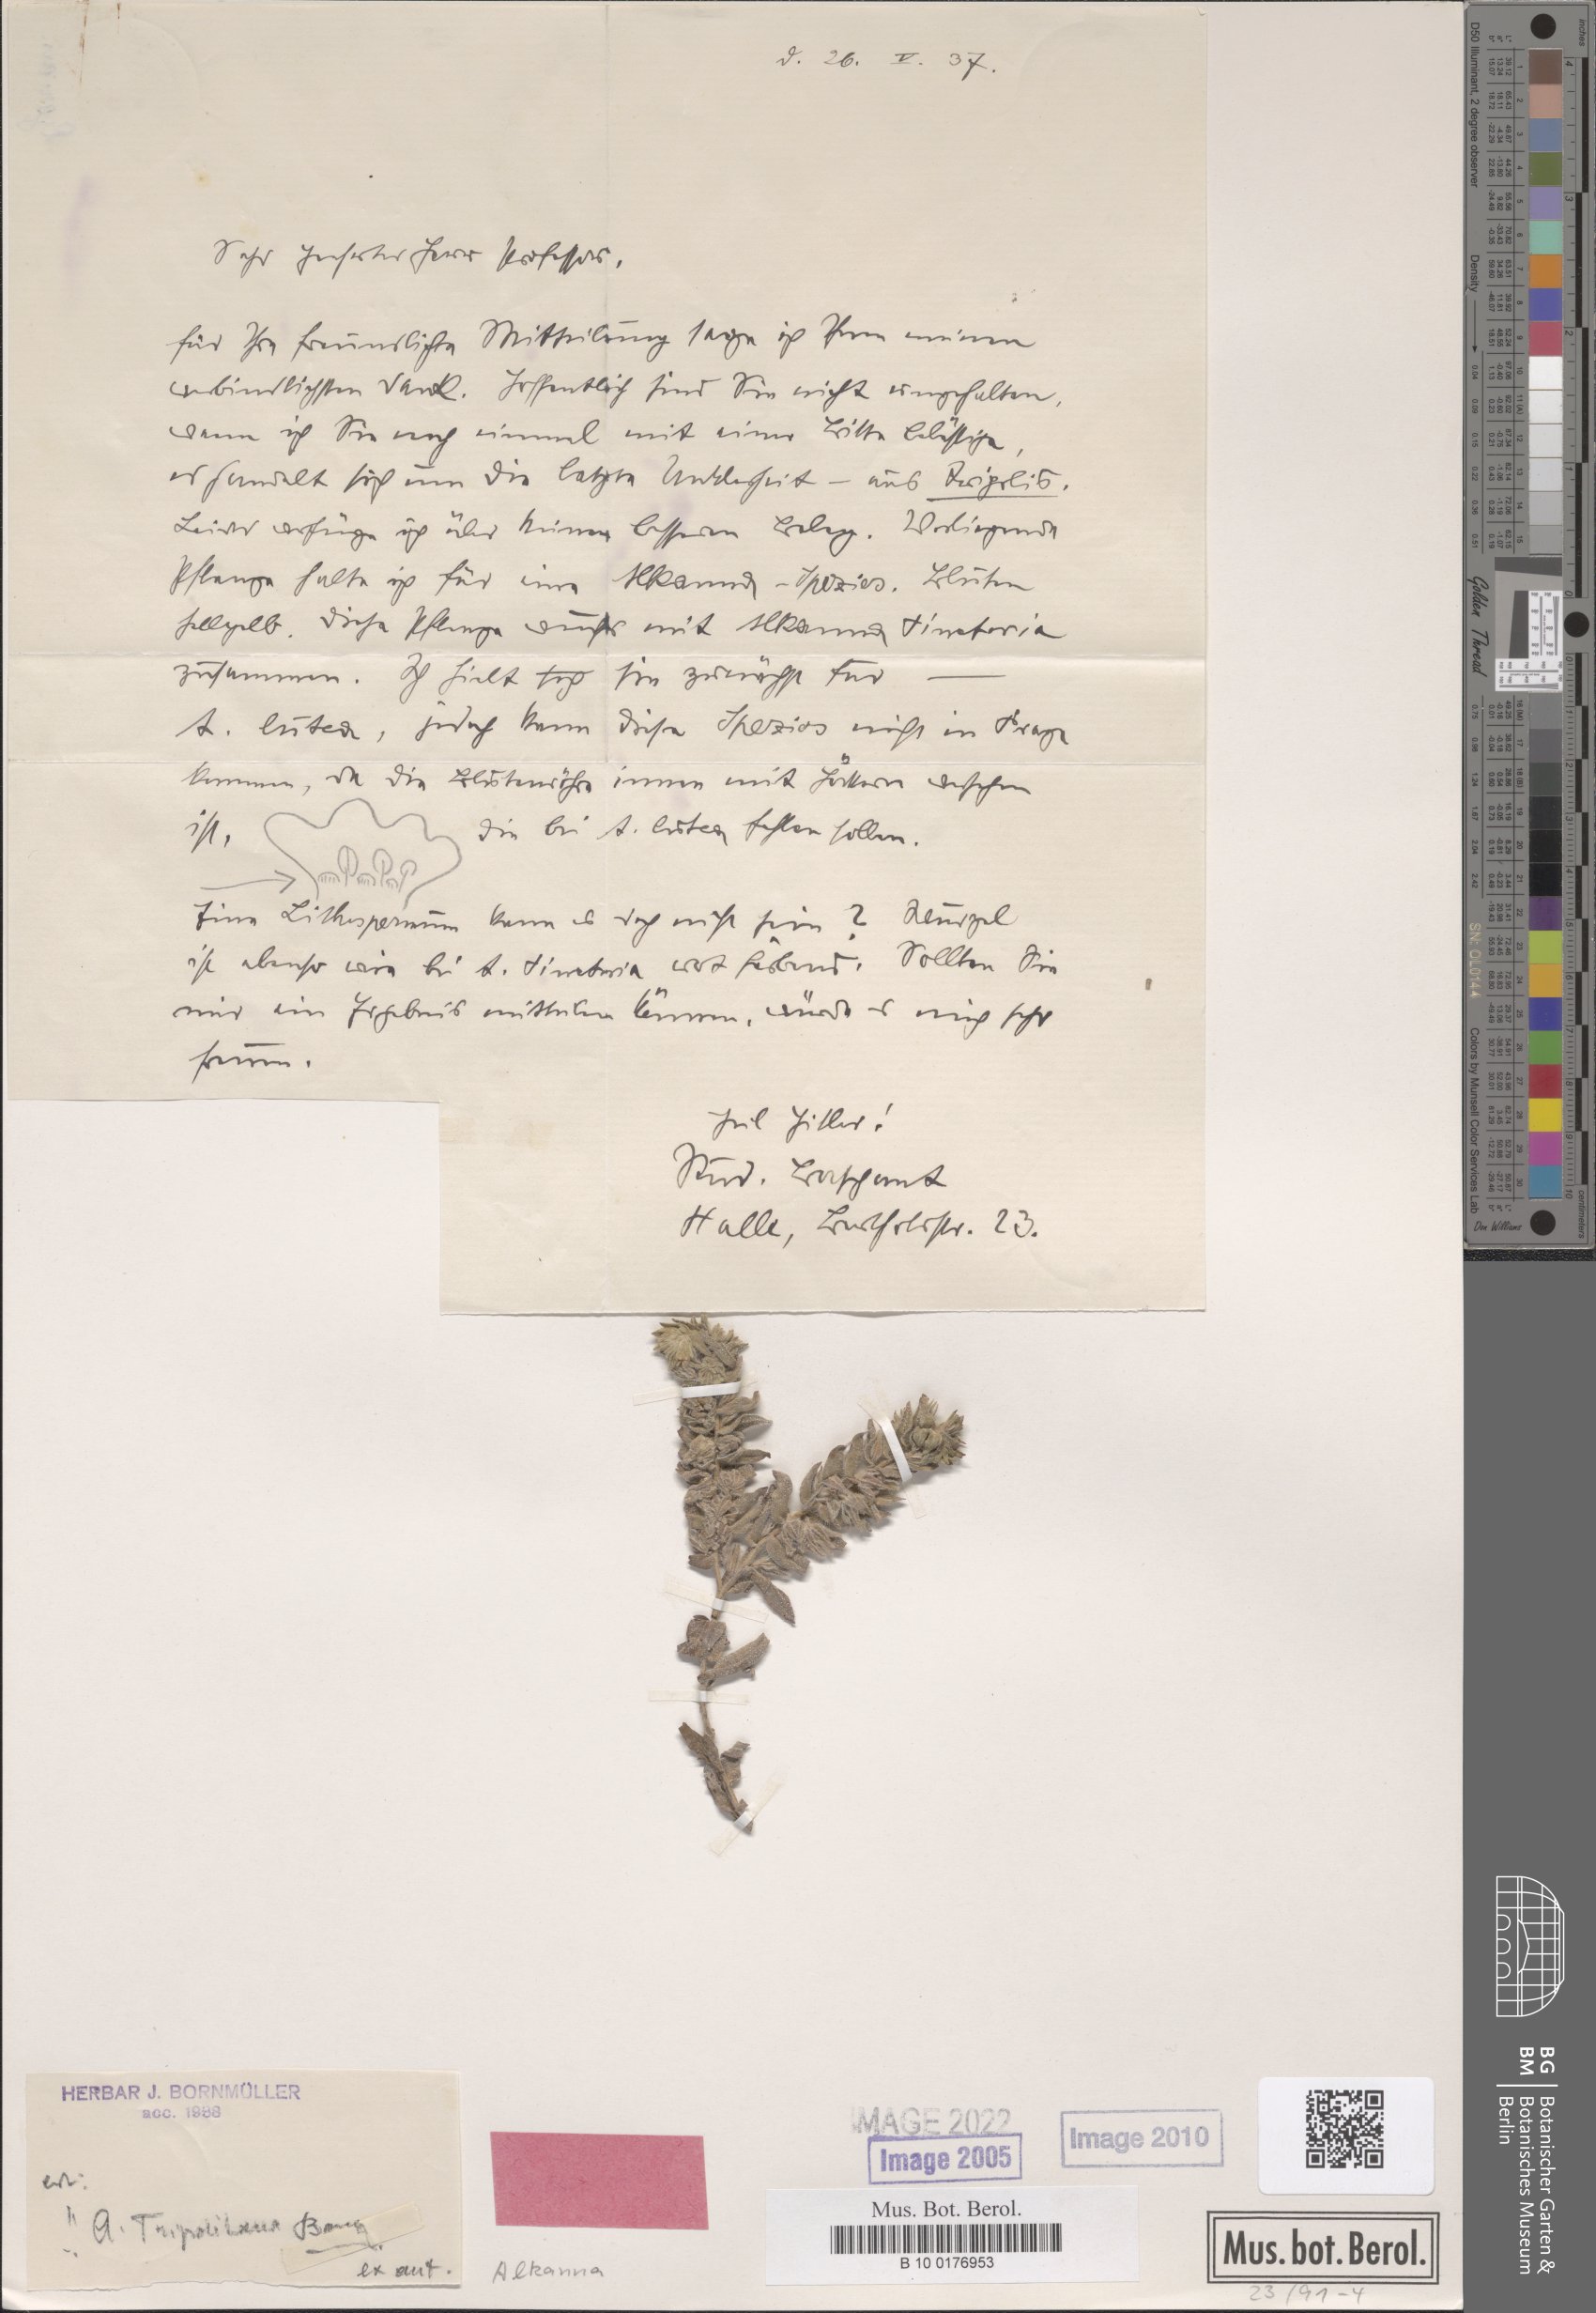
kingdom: Plantae
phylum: Tracheophyta
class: Magnoliopsida
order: Boraginales
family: Boraginaceae
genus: Alkanna
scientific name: Alkanna tinctoria
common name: Dyer's-alkanet
